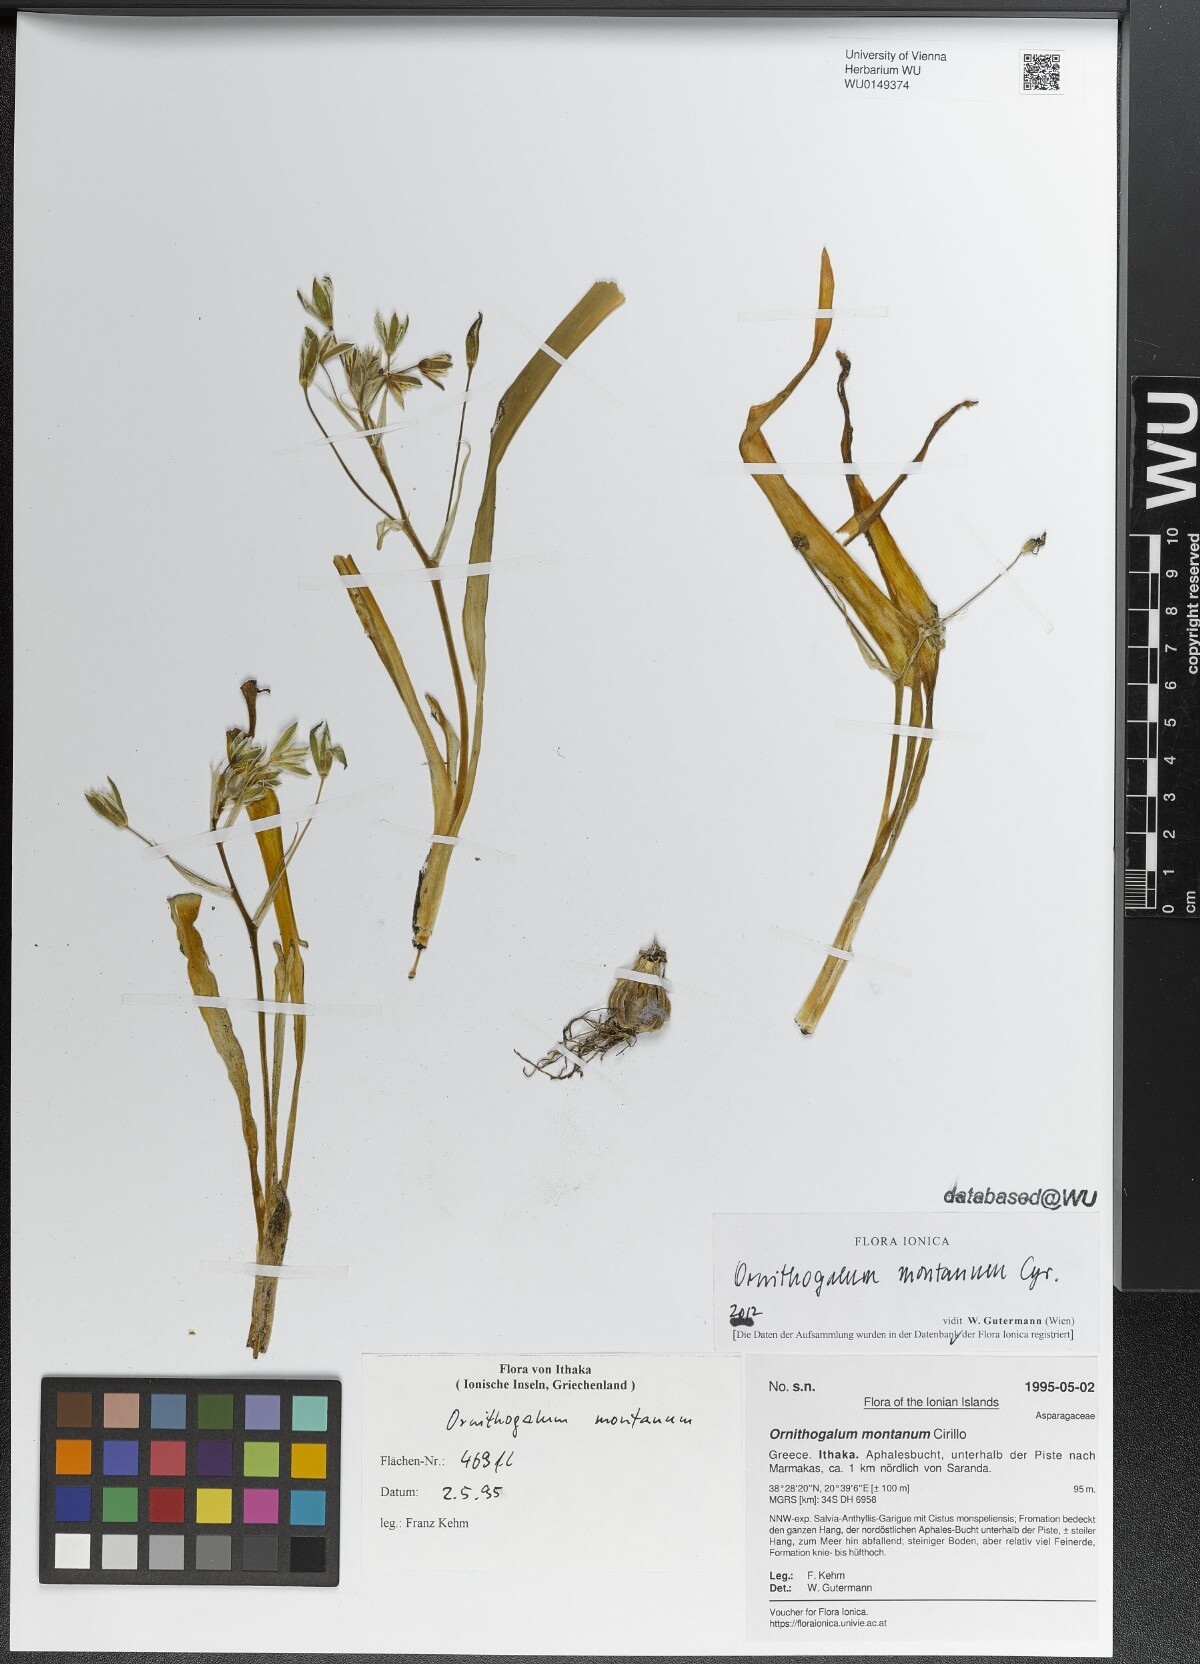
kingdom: Plantae
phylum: Tracheophyta
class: Liliopsida
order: Asparagales
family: Asparagaceae
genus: Ornithogalum
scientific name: Ornithogalum montanum
